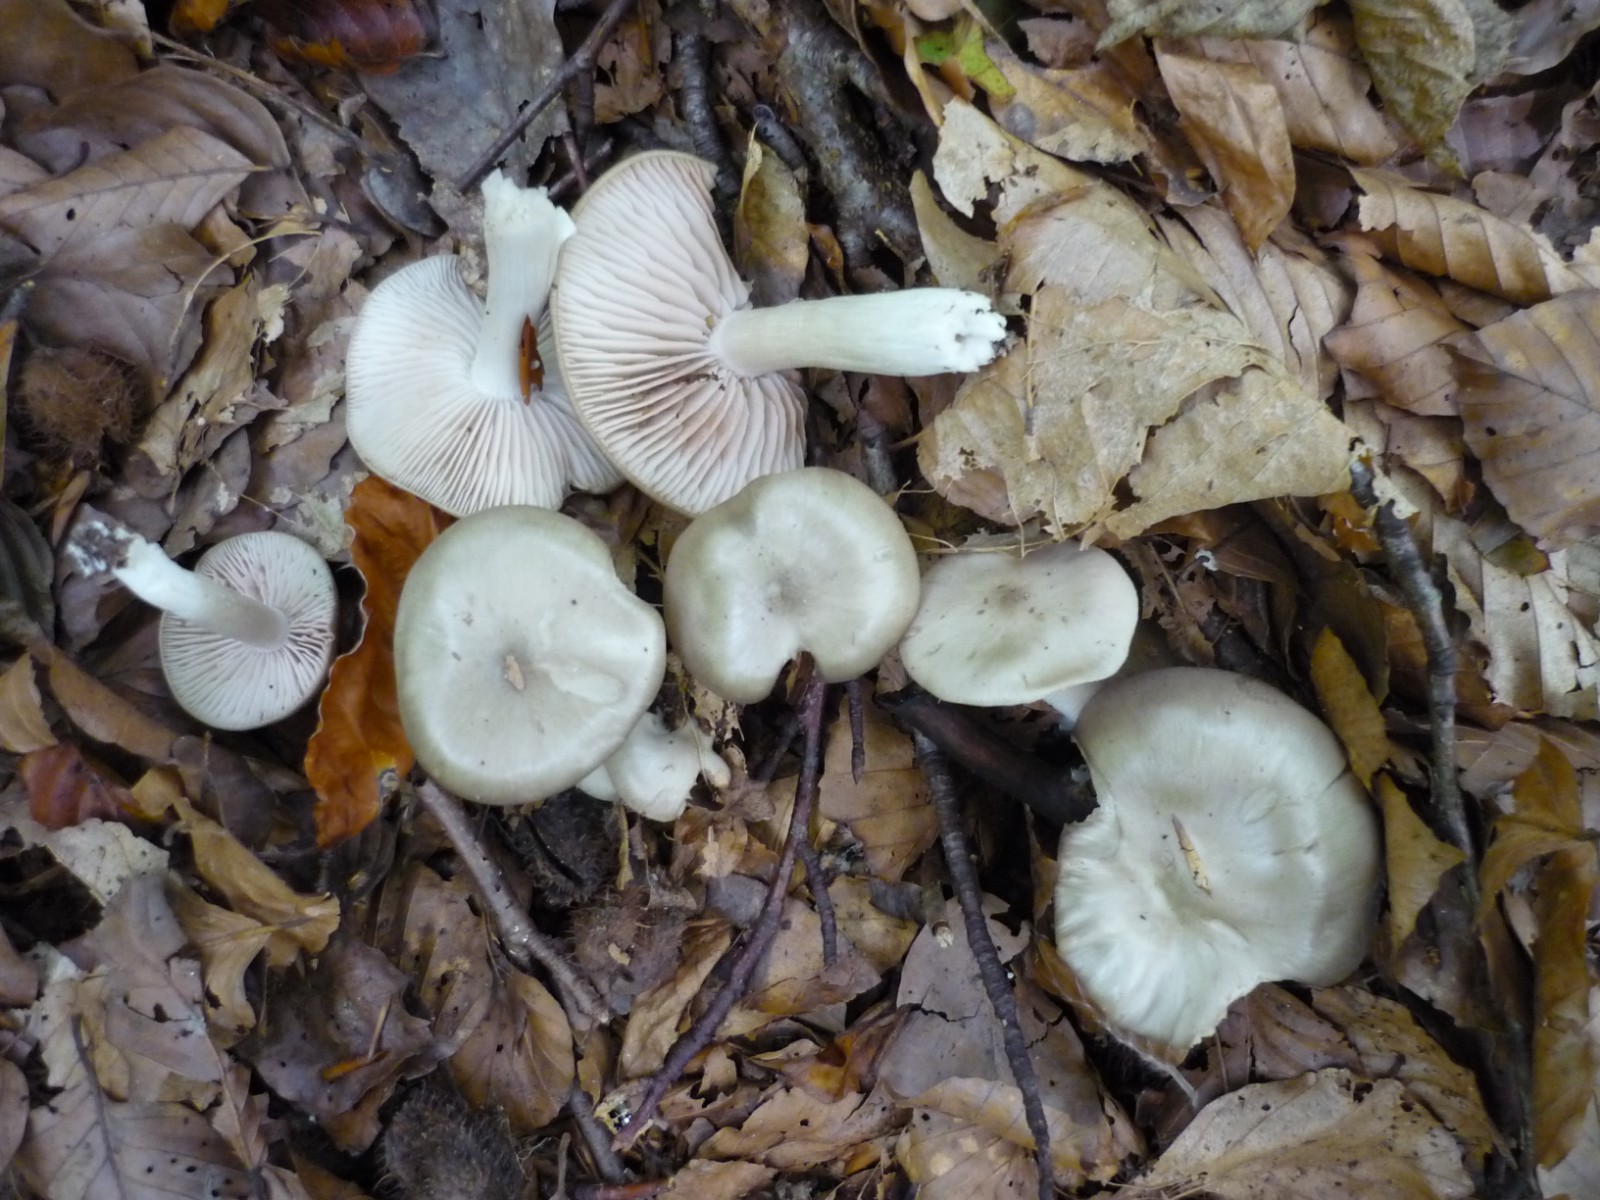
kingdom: Fungi
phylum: Basidiomycota
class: Agaricomycetes
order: Agaricales
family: Entolomataceae
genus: Entoloma
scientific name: Entoloma sericatum
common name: rank rødblad
